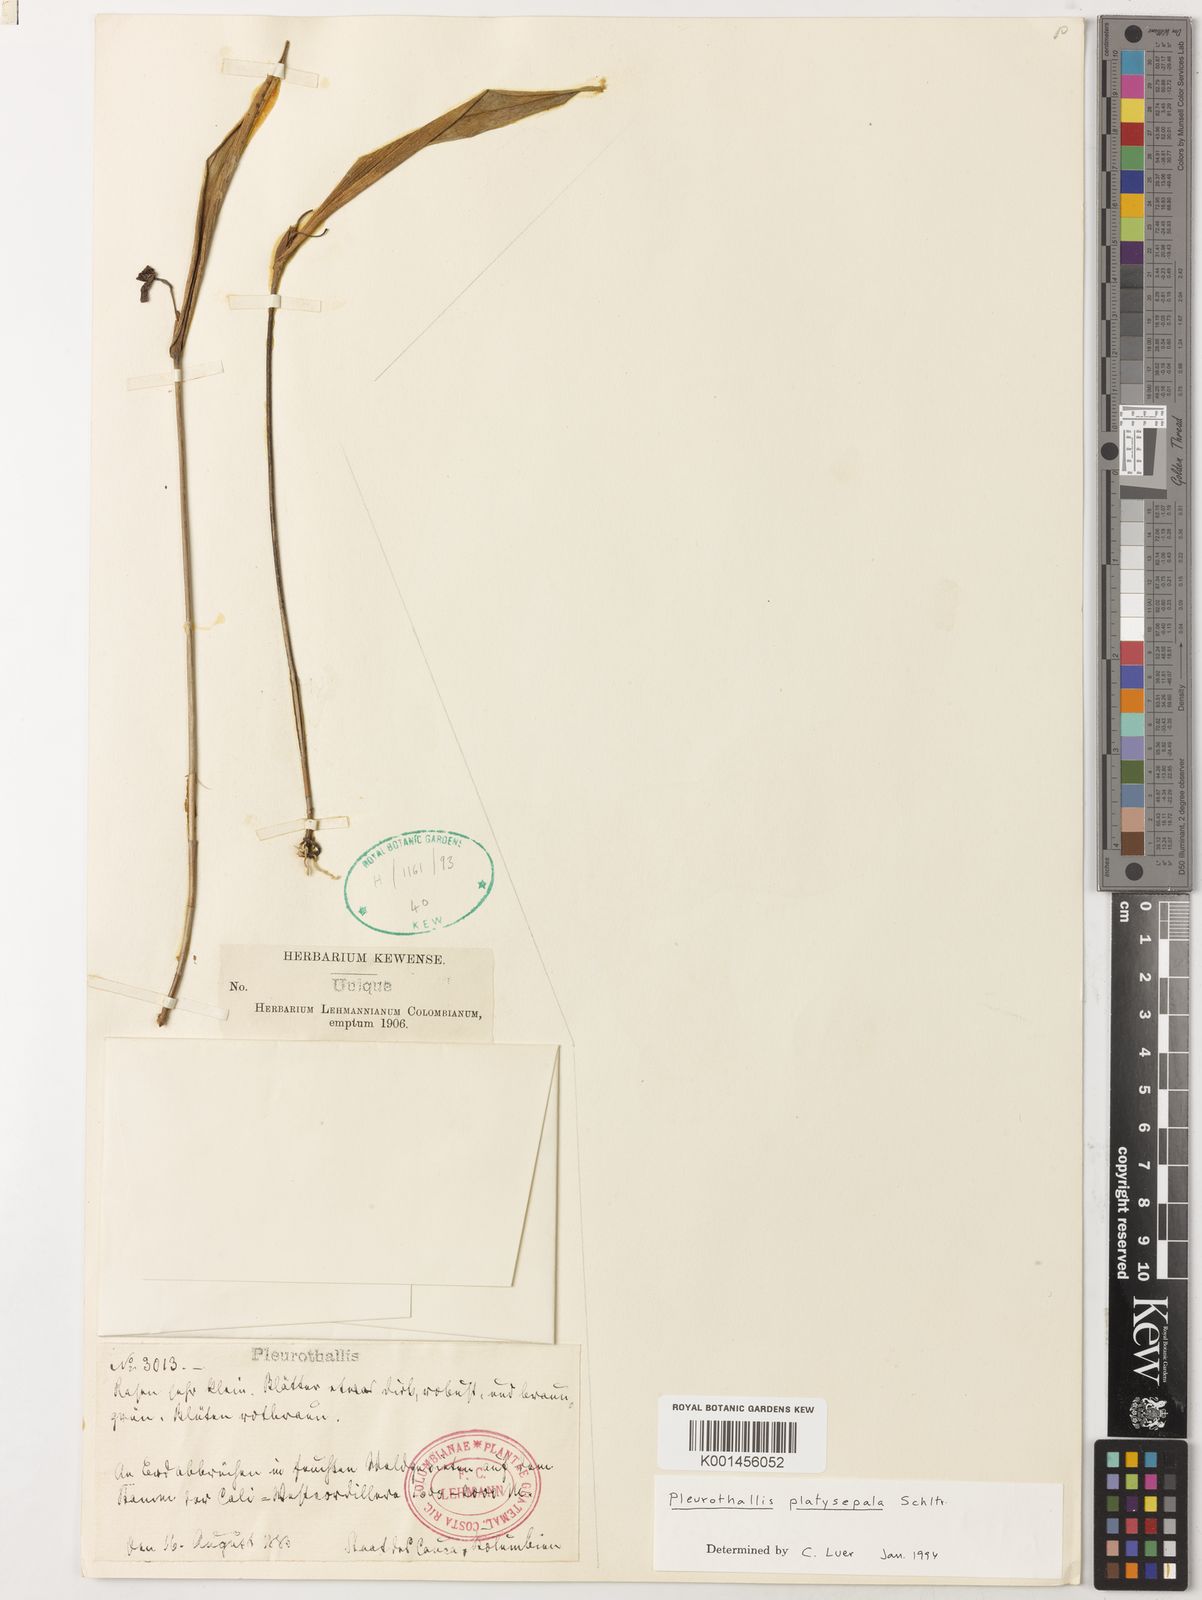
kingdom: Plantae
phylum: Tracheophyta
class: Liliopsida
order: Asparagales
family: Orchidaceae
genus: Pleurothallis
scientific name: Pleurothallis platysepala
